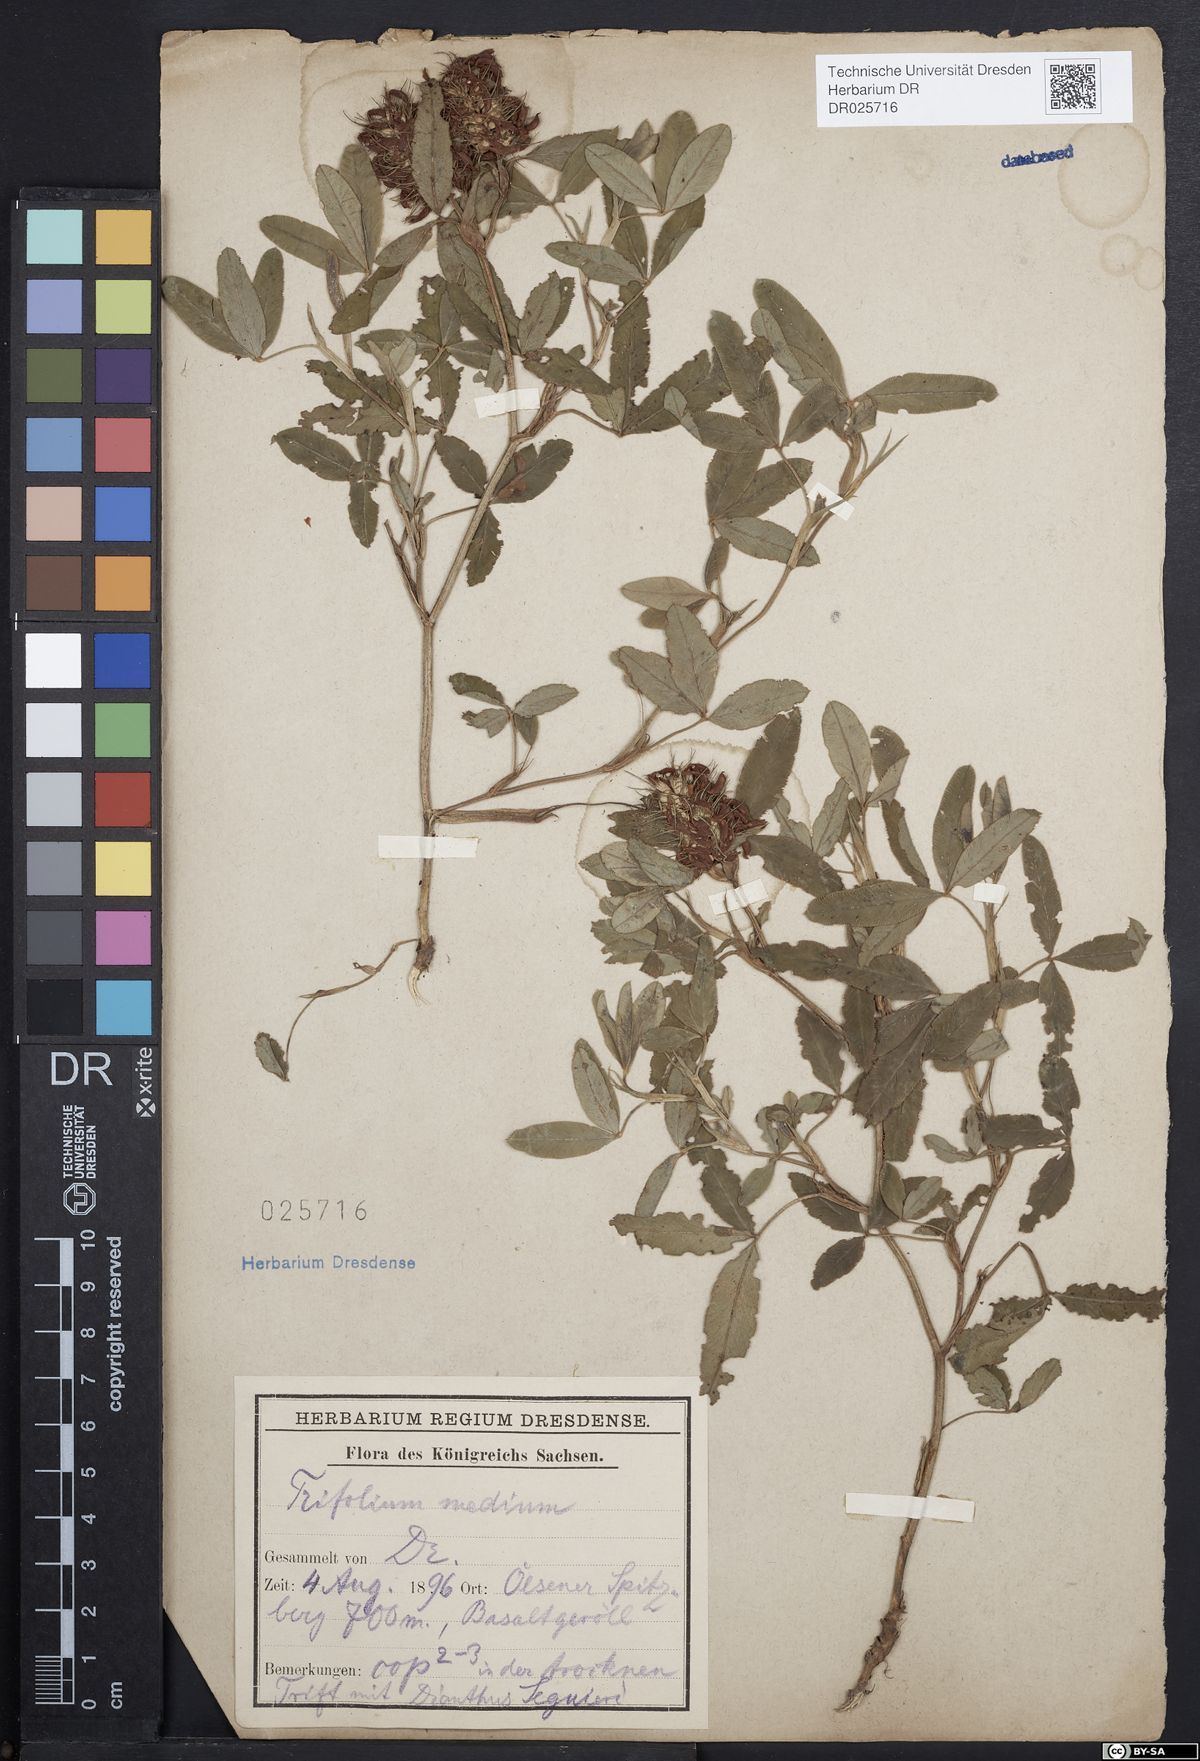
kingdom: Plantae
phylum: Tracheophyta
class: Magnoliopsida
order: Fabales
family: Fabaceae
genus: Trifolium
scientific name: Trifolium medium
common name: Zigzag clover
